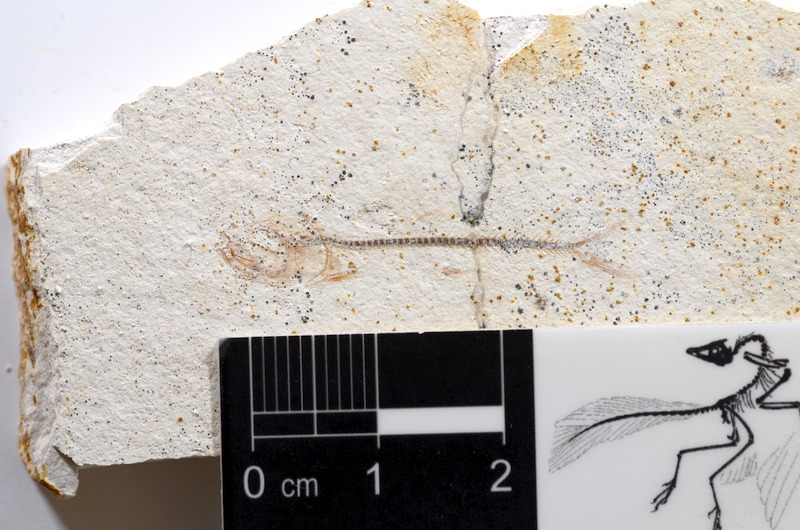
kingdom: Animalia
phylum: Chordata
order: Salmoniformes
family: Orthogonikleithridae
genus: Orthogonikleithrus
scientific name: Orthogonikleithrus hoelli
